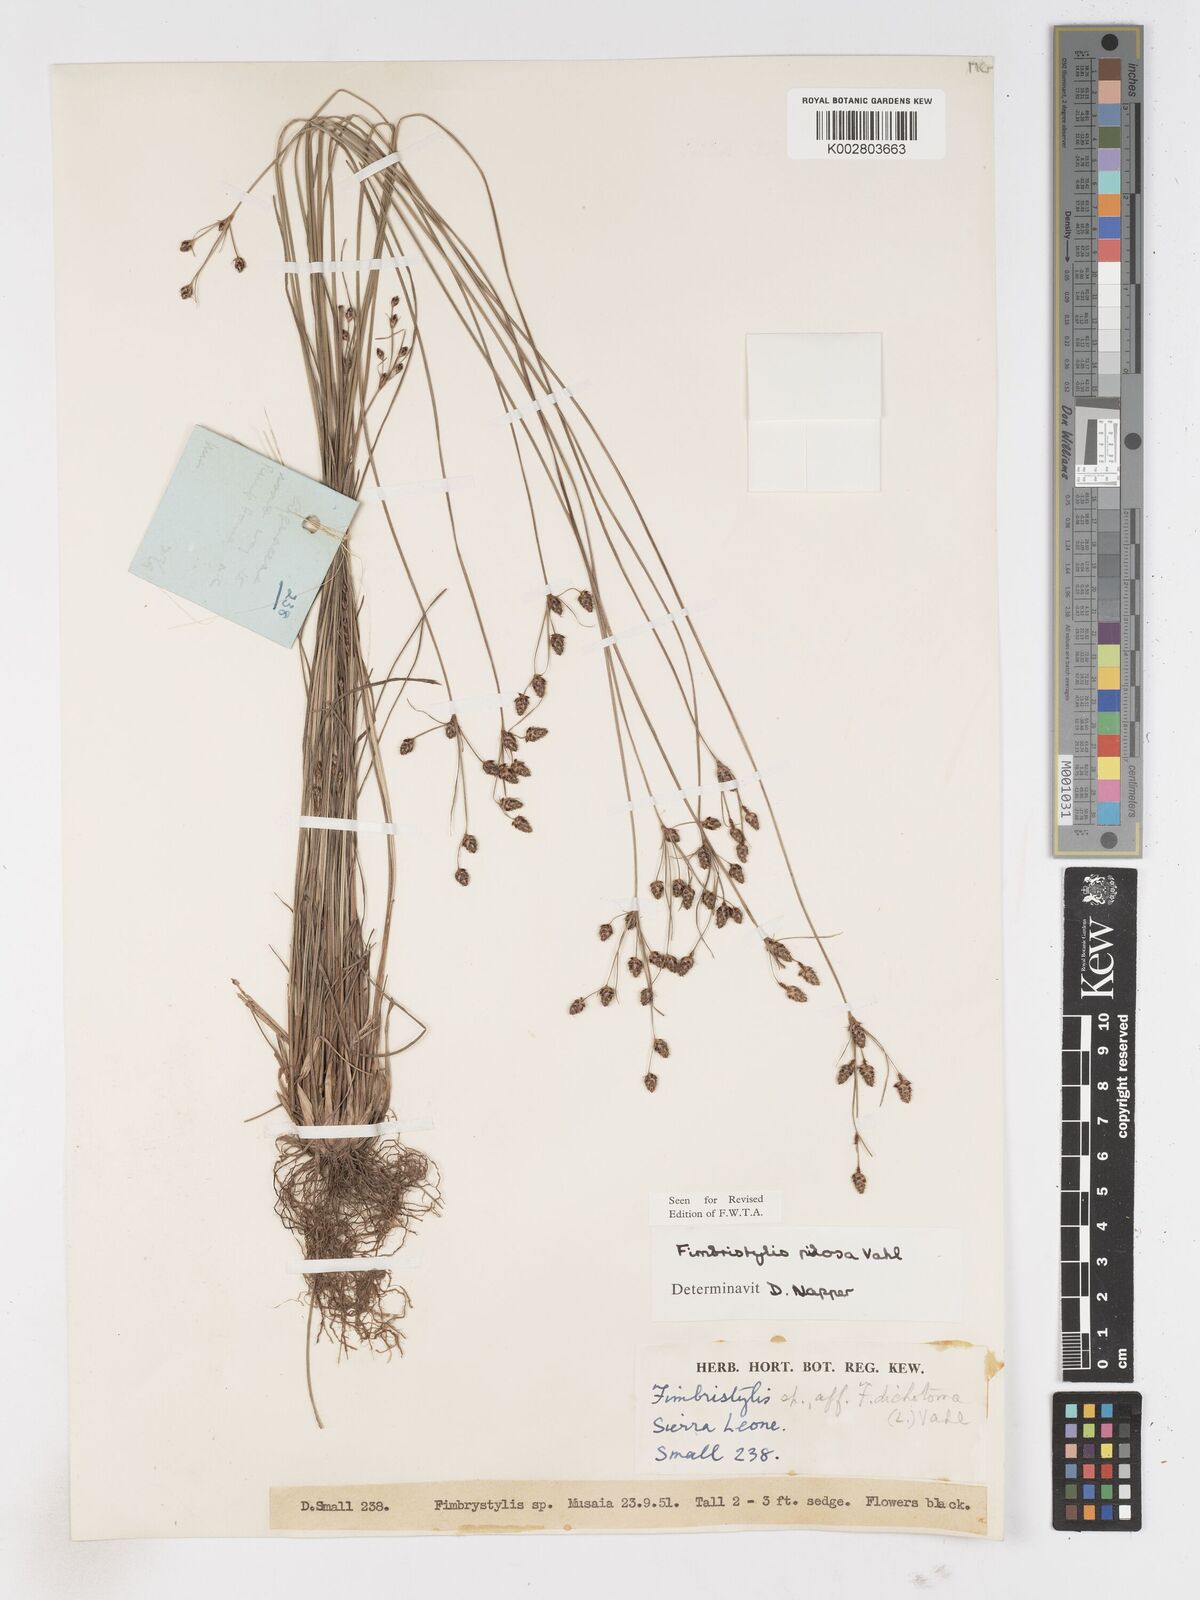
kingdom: Plantae
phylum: Tracheophyta
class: Liliopsida
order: Poales
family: Cyperaceae
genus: Fimbristylis
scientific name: Fimbristylis pilosa
